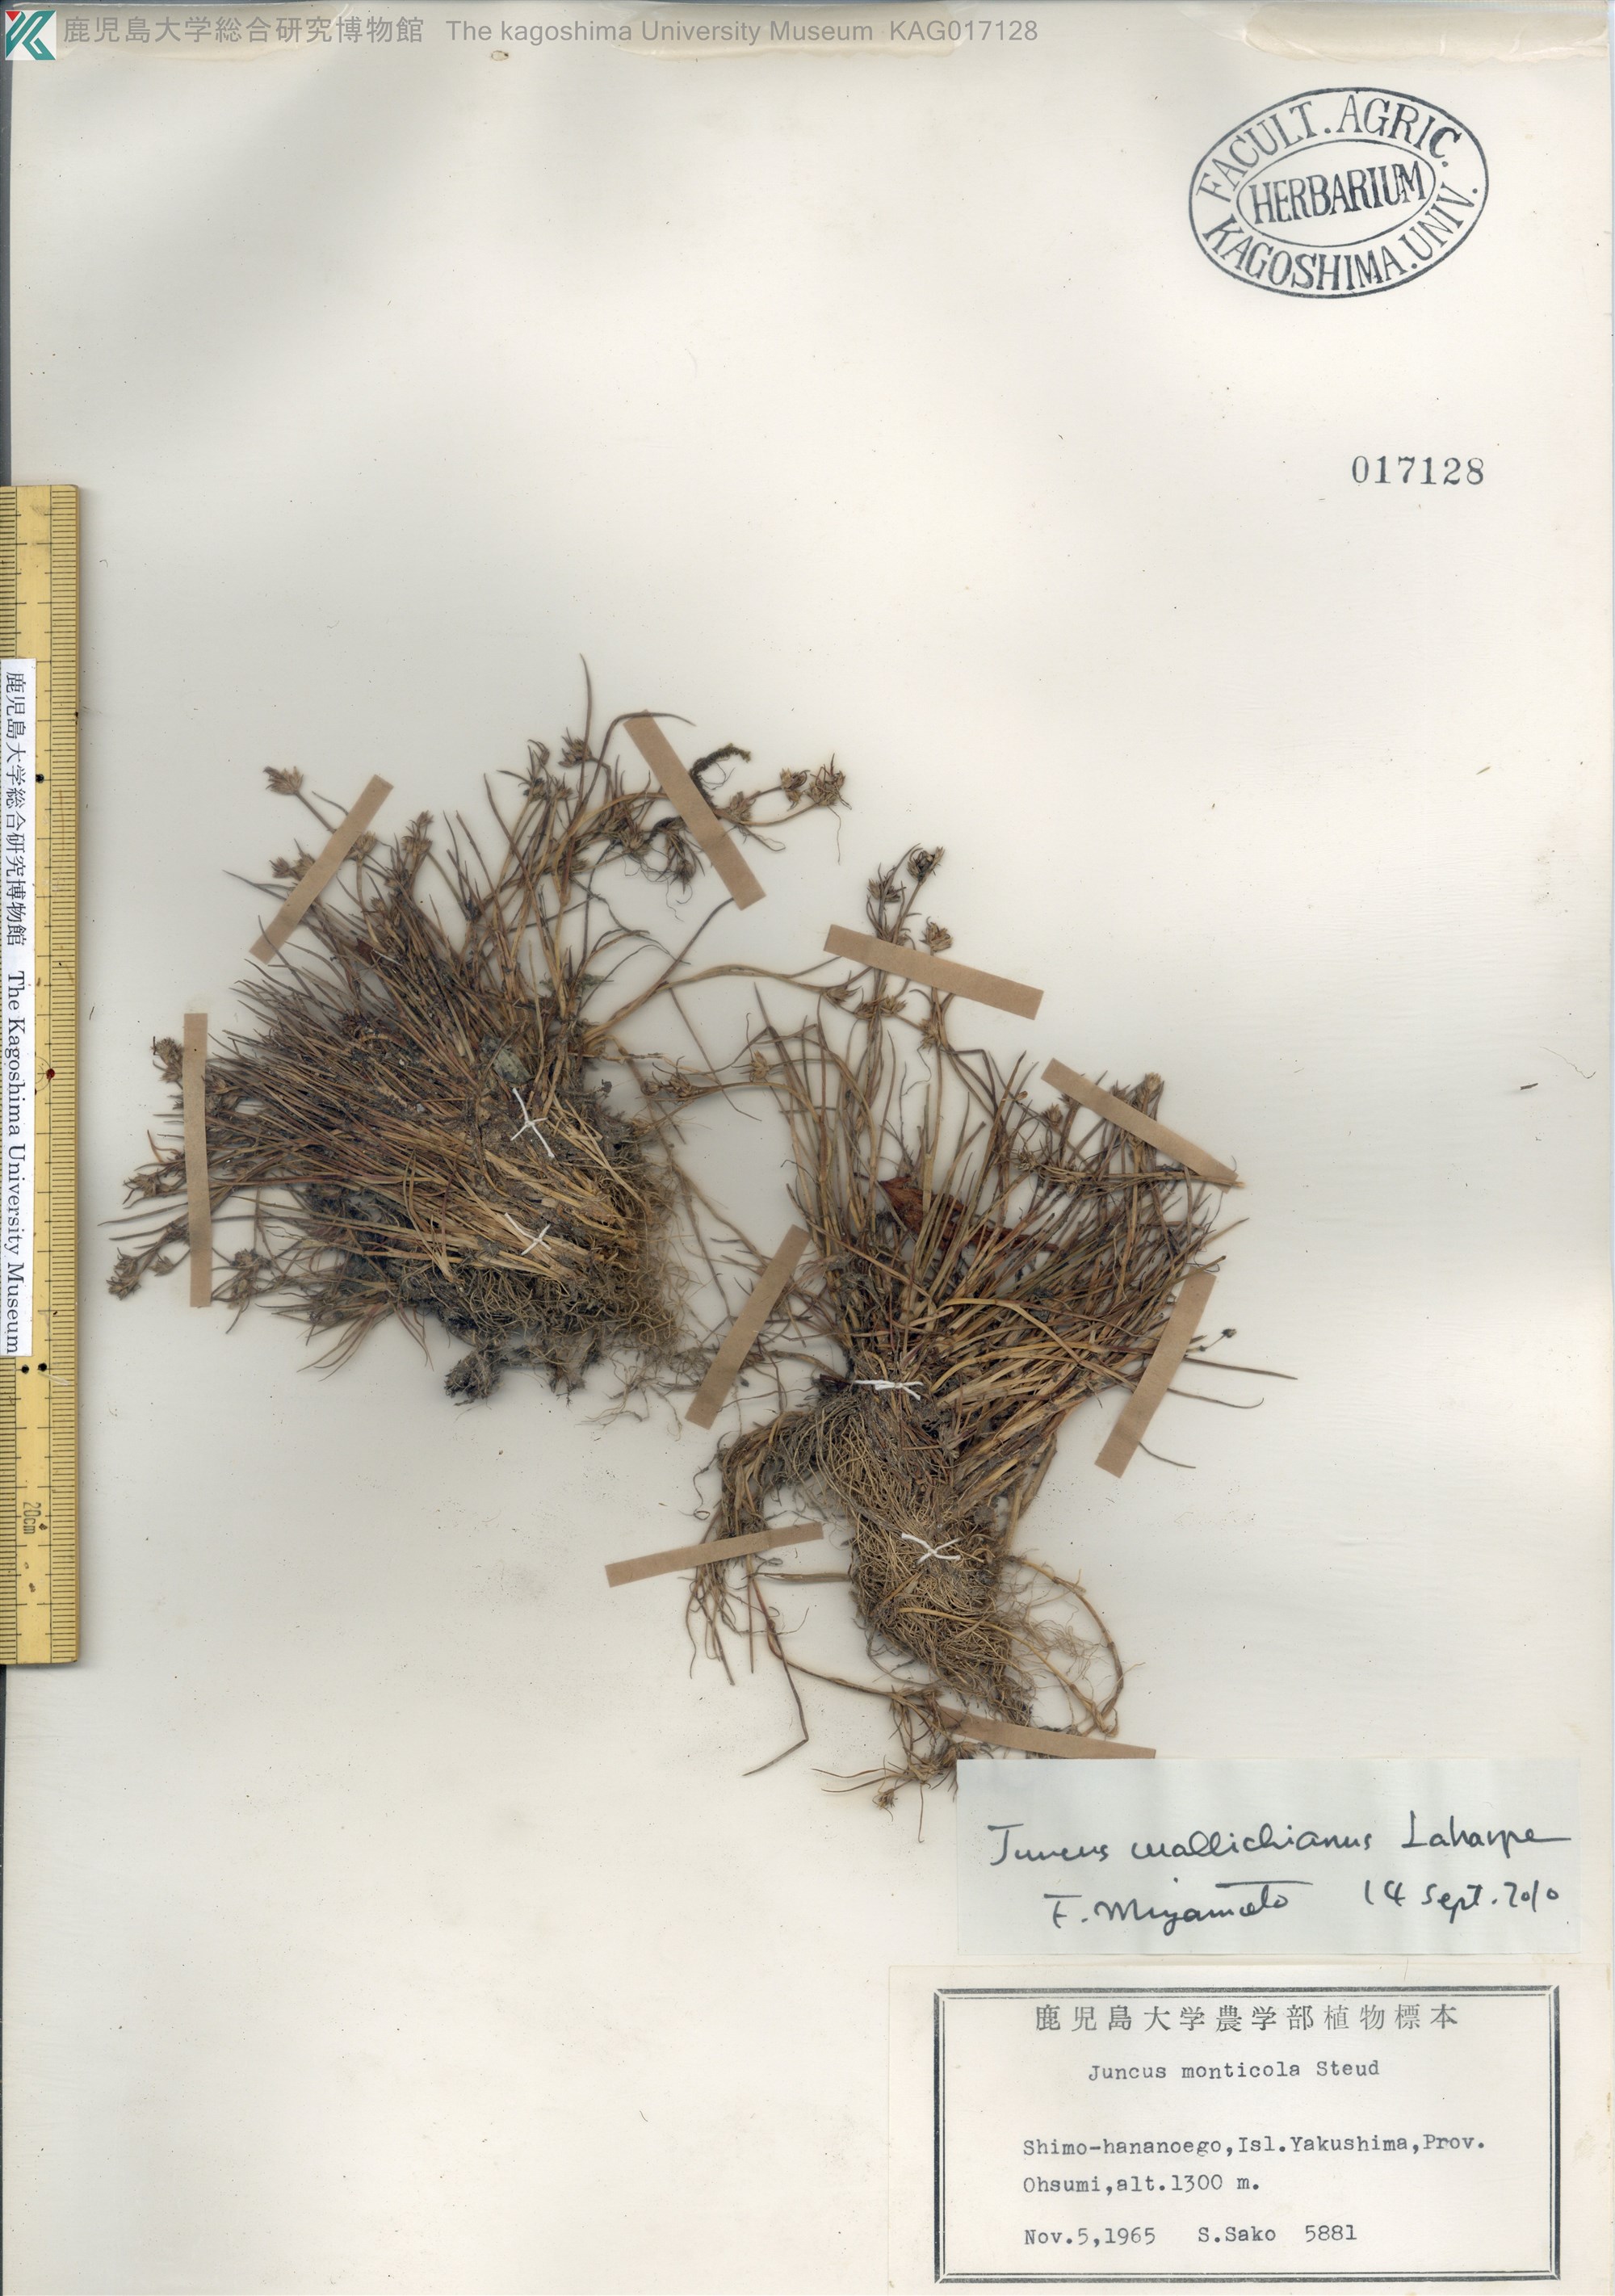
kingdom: Plantae
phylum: Tracheophyta
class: Liliopsida
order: Poales
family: Juncaceae
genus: Juncus
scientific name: Juncus wallichianus
